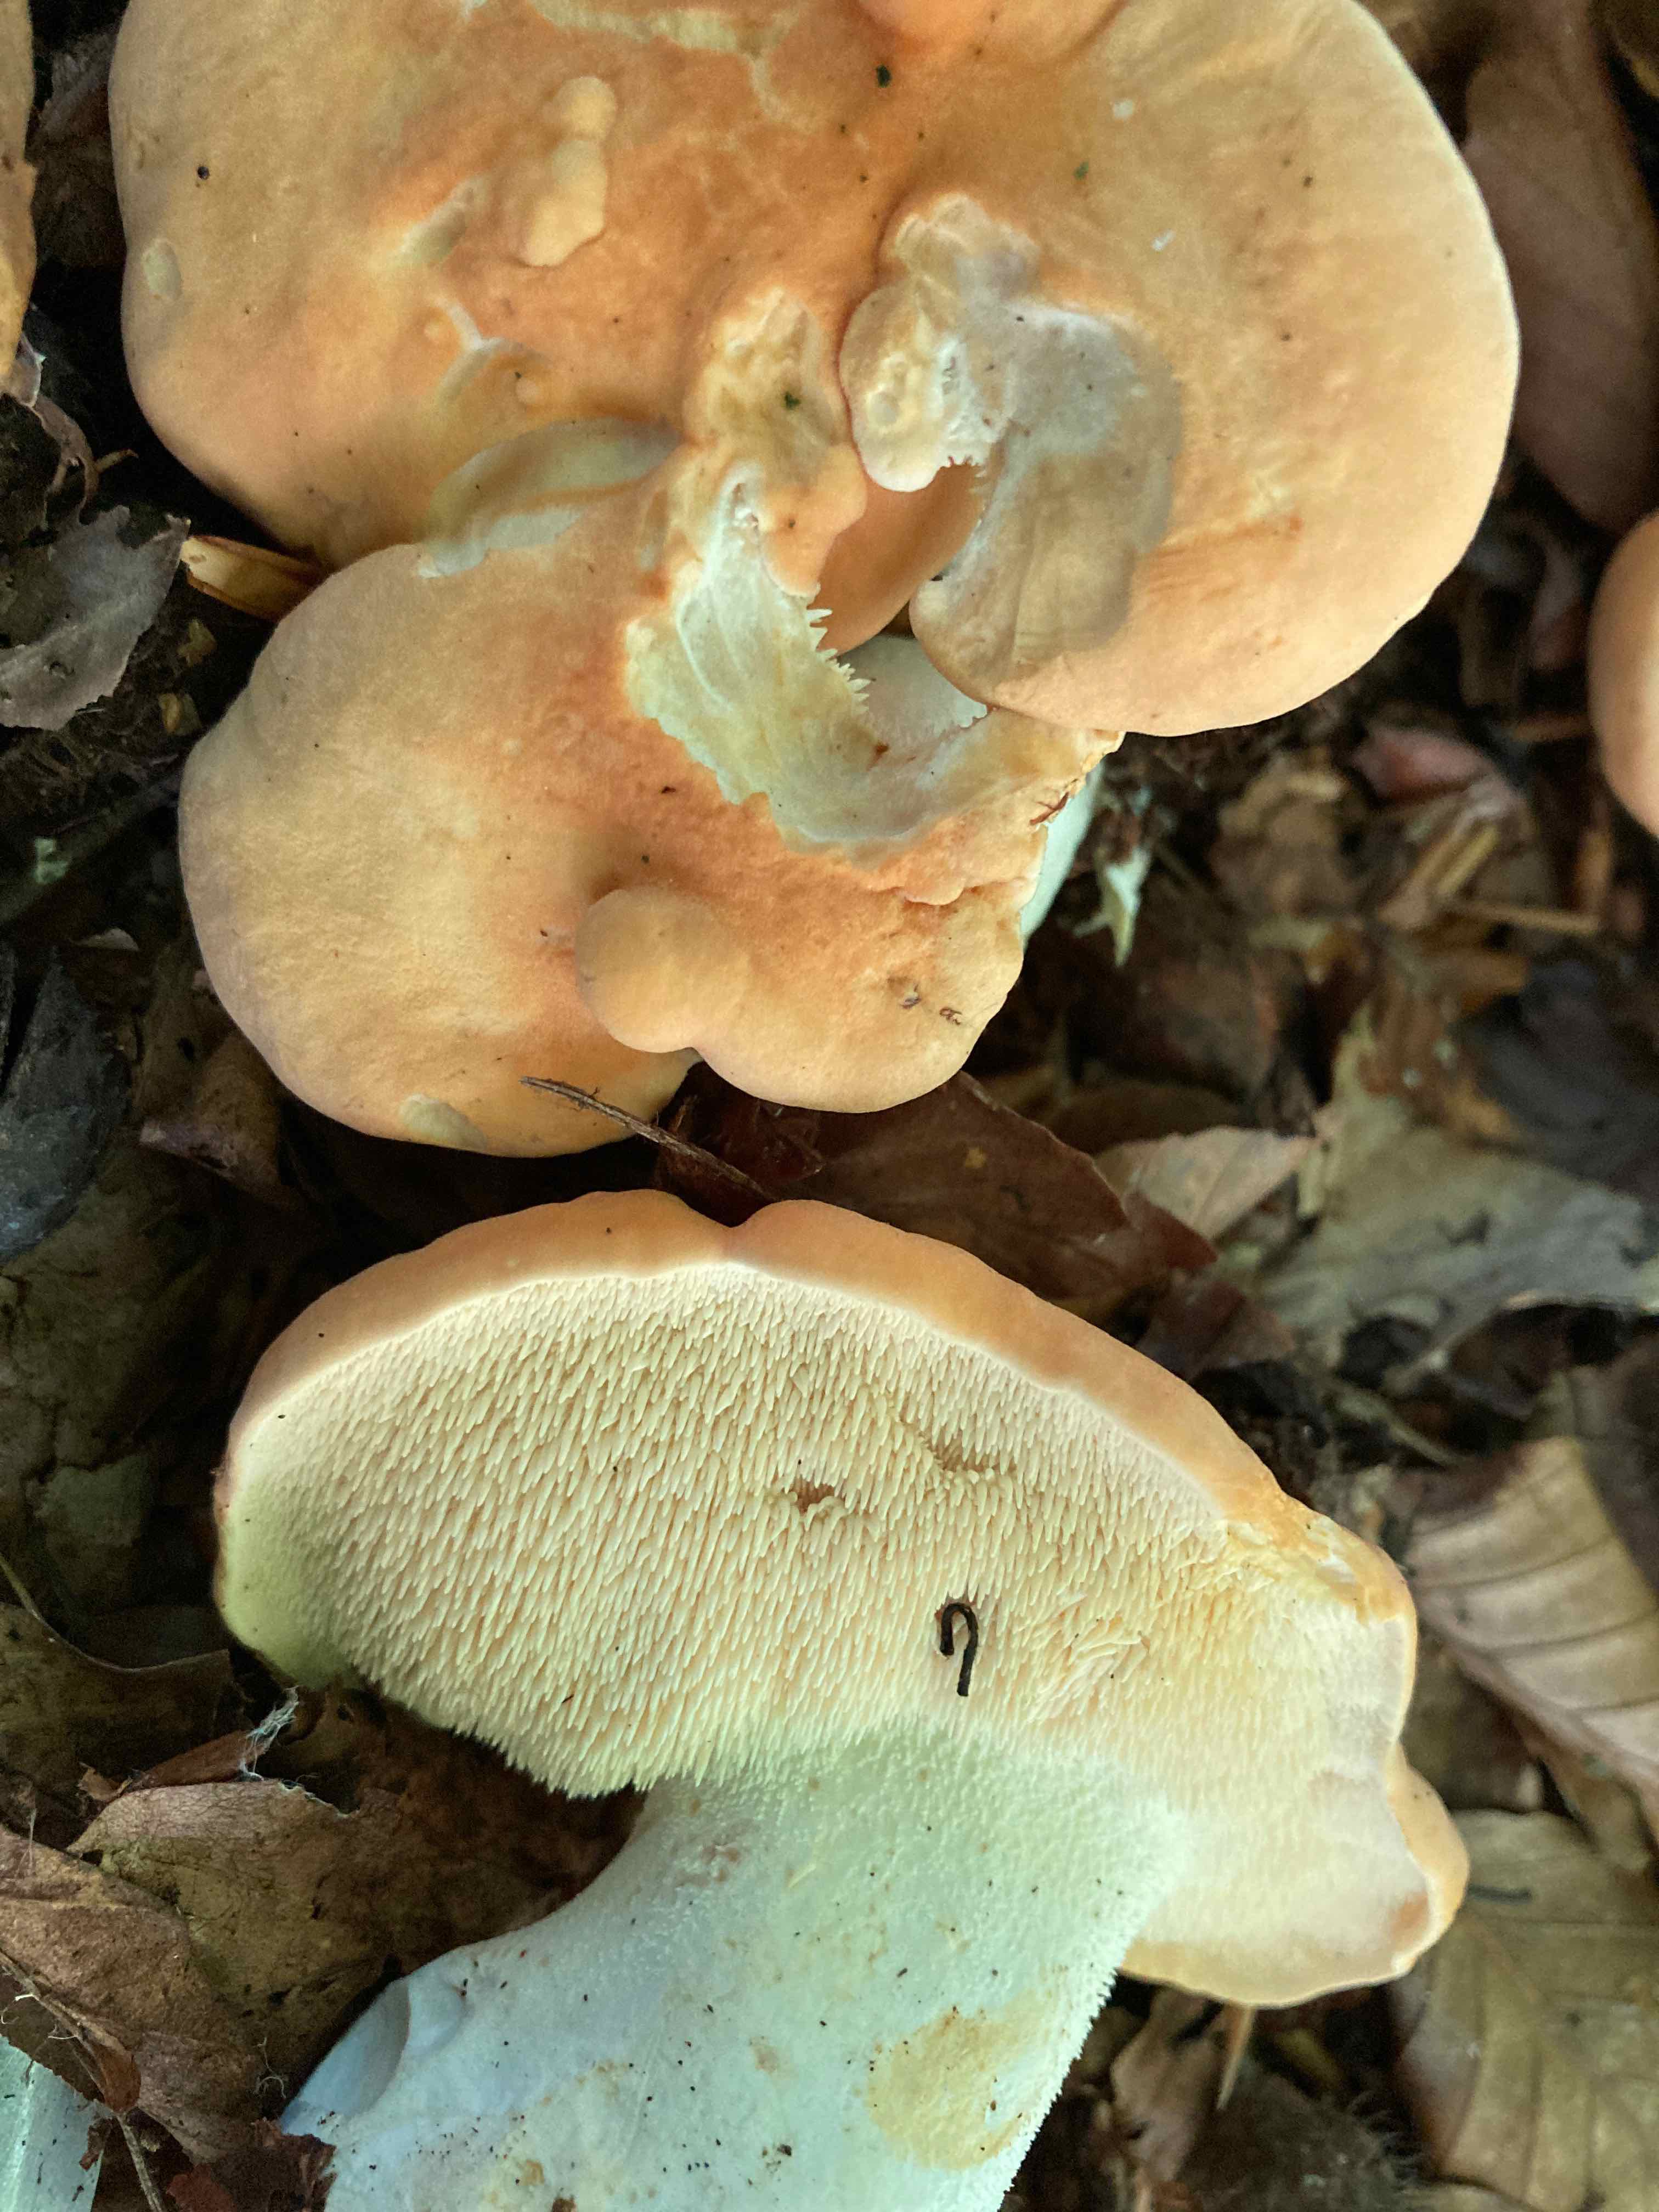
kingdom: Fungi
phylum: Basidiomycota
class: Agaricomycetes
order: Cantharellales
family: Hydnaceae
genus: Hydnum
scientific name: Hydnum slovenicum
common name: slovensk pigsvamp
